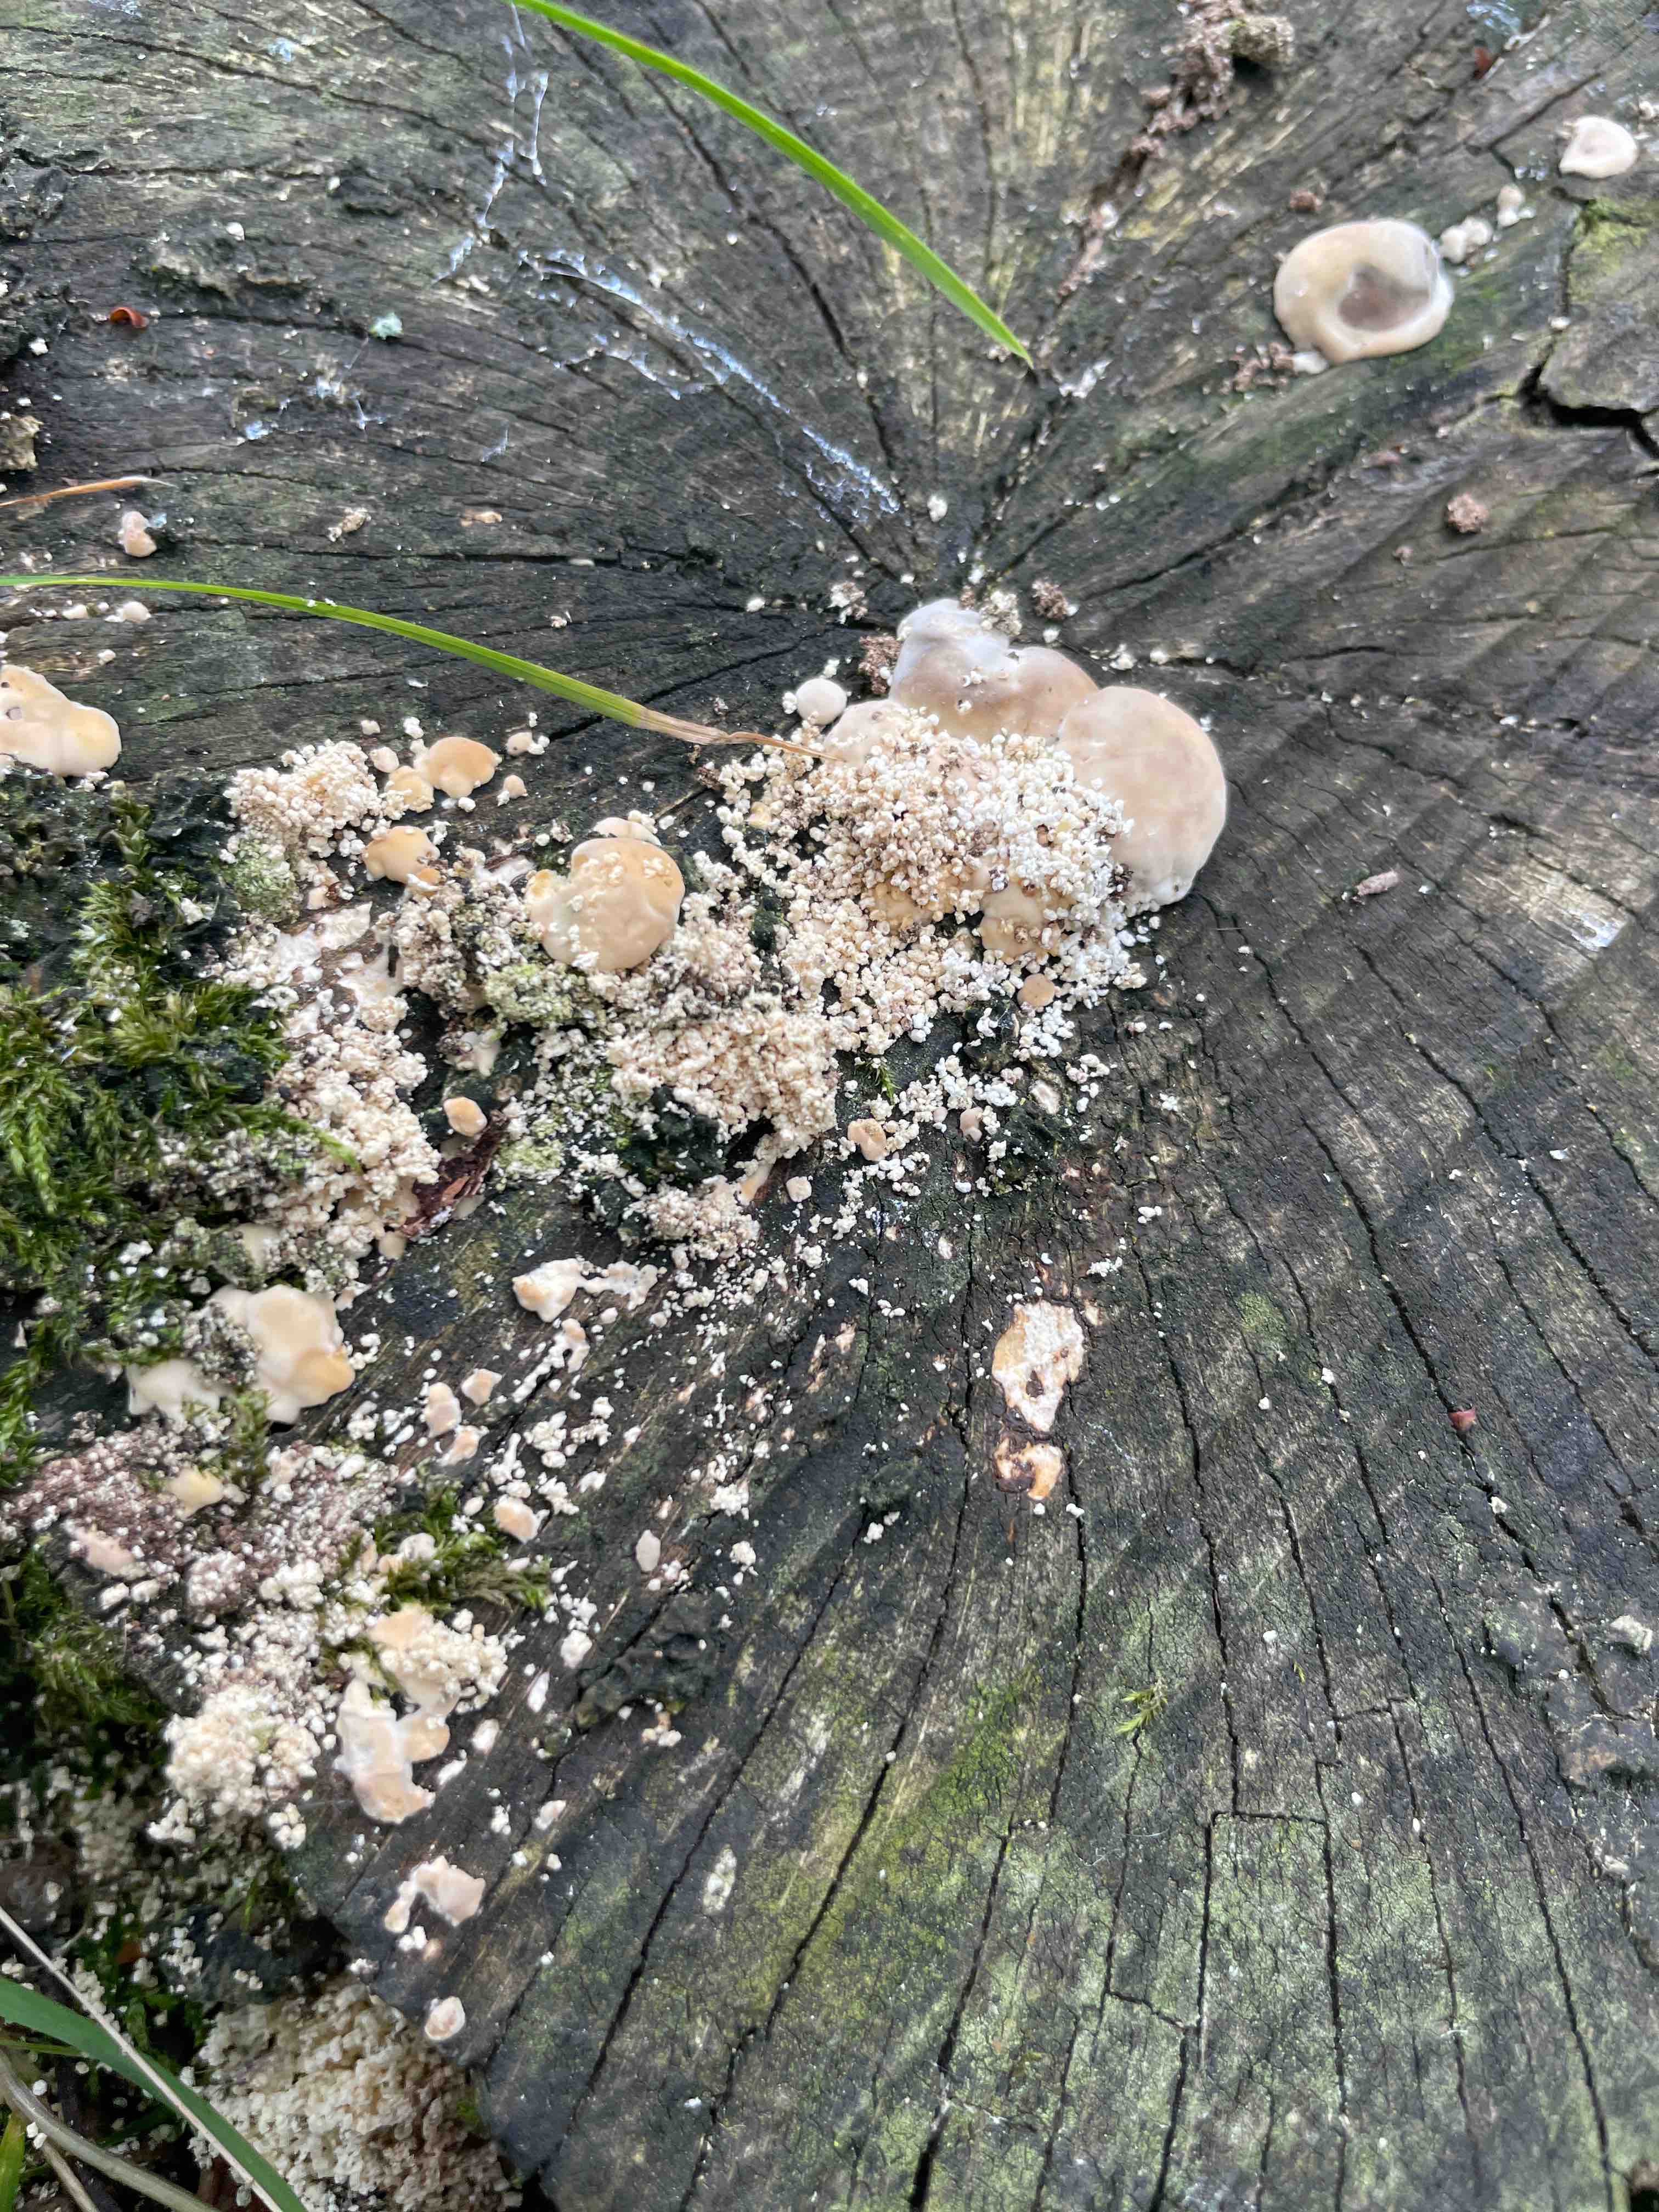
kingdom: Fungi
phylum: Basidiomycota
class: Agaricomycetes
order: Polyporales
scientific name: Polyporales
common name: poresvampordenen
